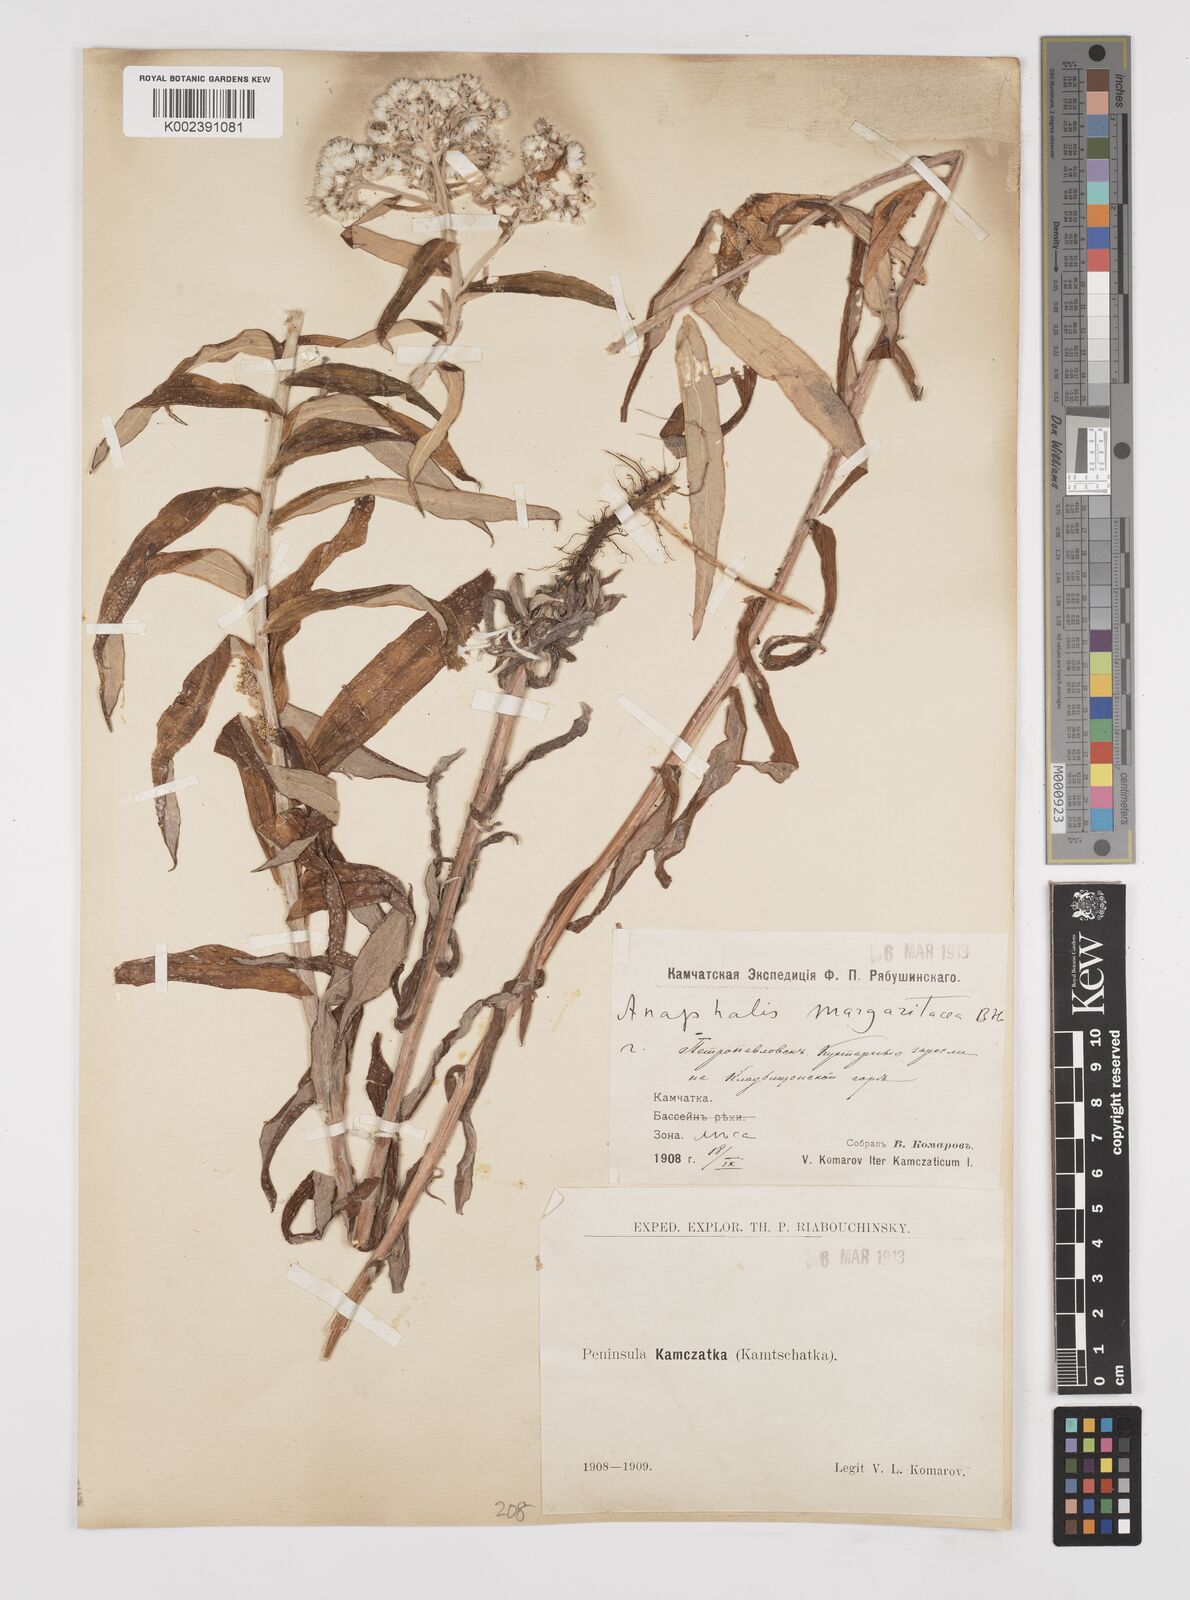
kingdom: Plantae
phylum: Tracheophyta
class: Magnoliopsida
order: Asterales
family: Asteraceae
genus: Anaphalis
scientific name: Anaphalis margaritacea
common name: Pearly everlasting
